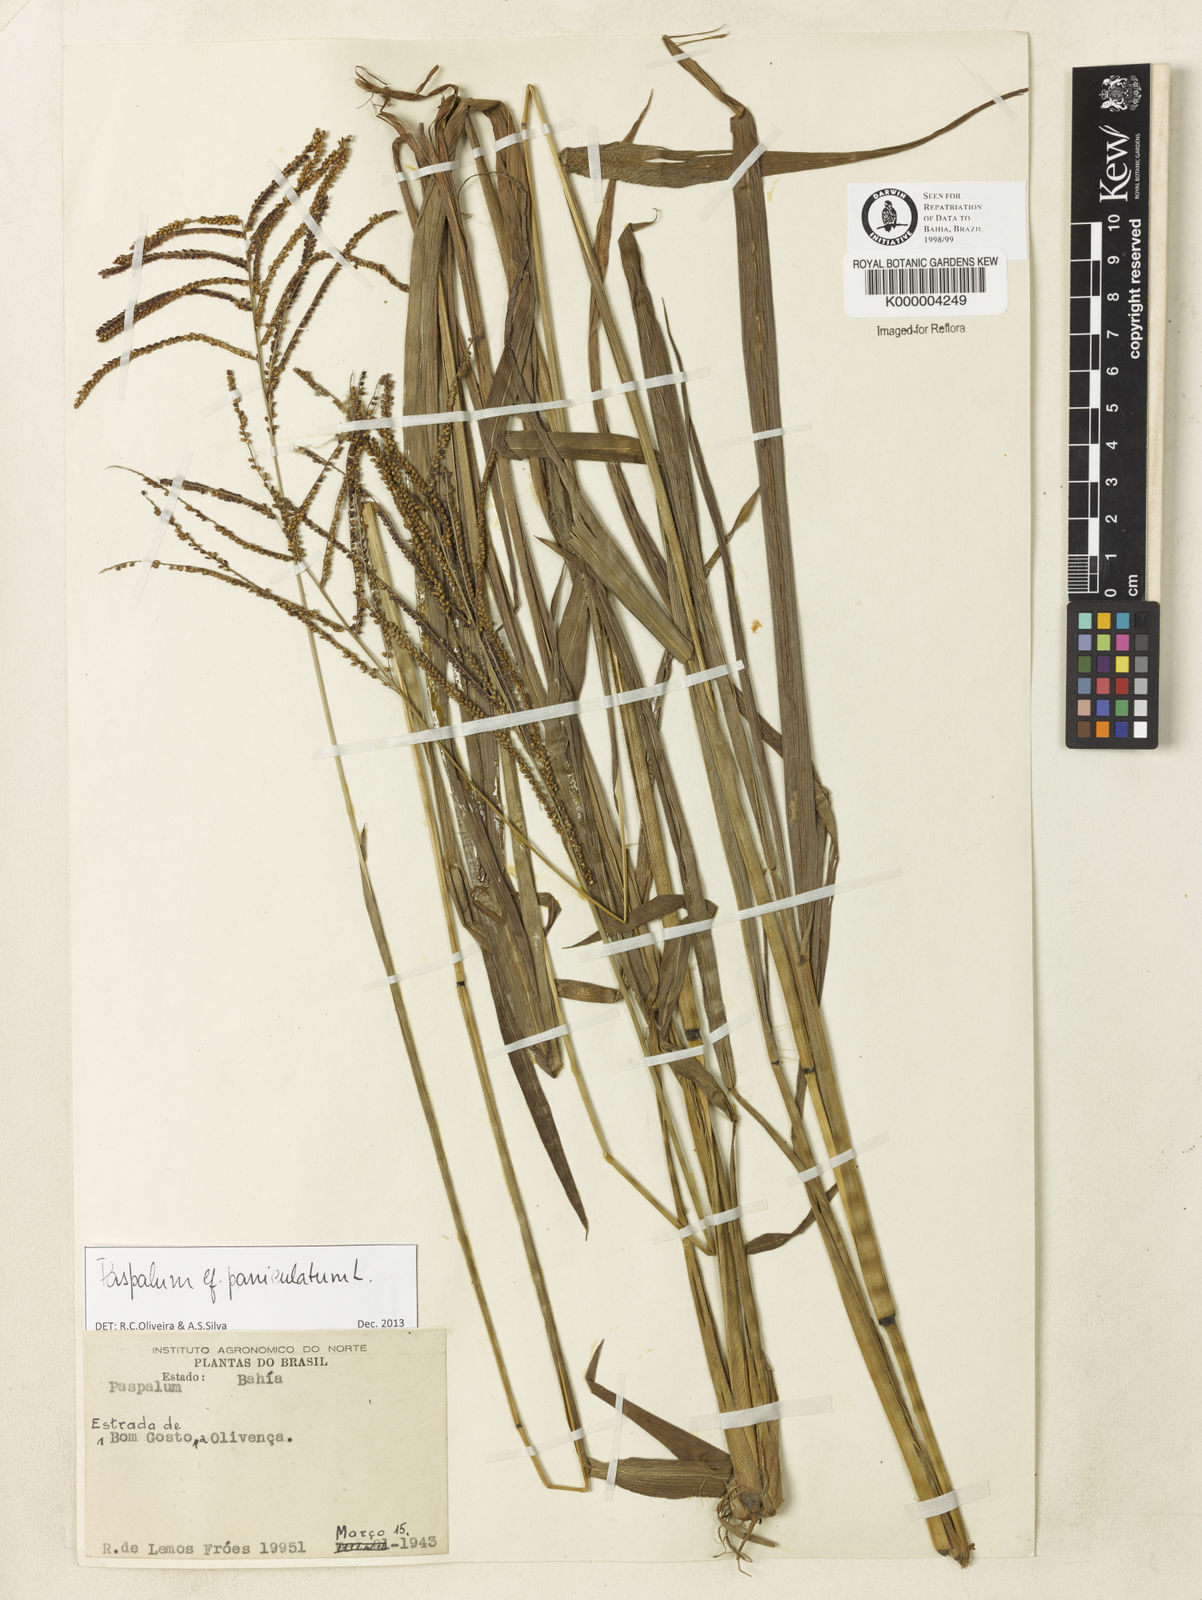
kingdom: Plantae
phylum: Tracheophyta
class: Liliopsida
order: Poales
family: Poaceae
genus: Paspalum
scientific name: Paspalum paniculatum
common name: Arrocillo
